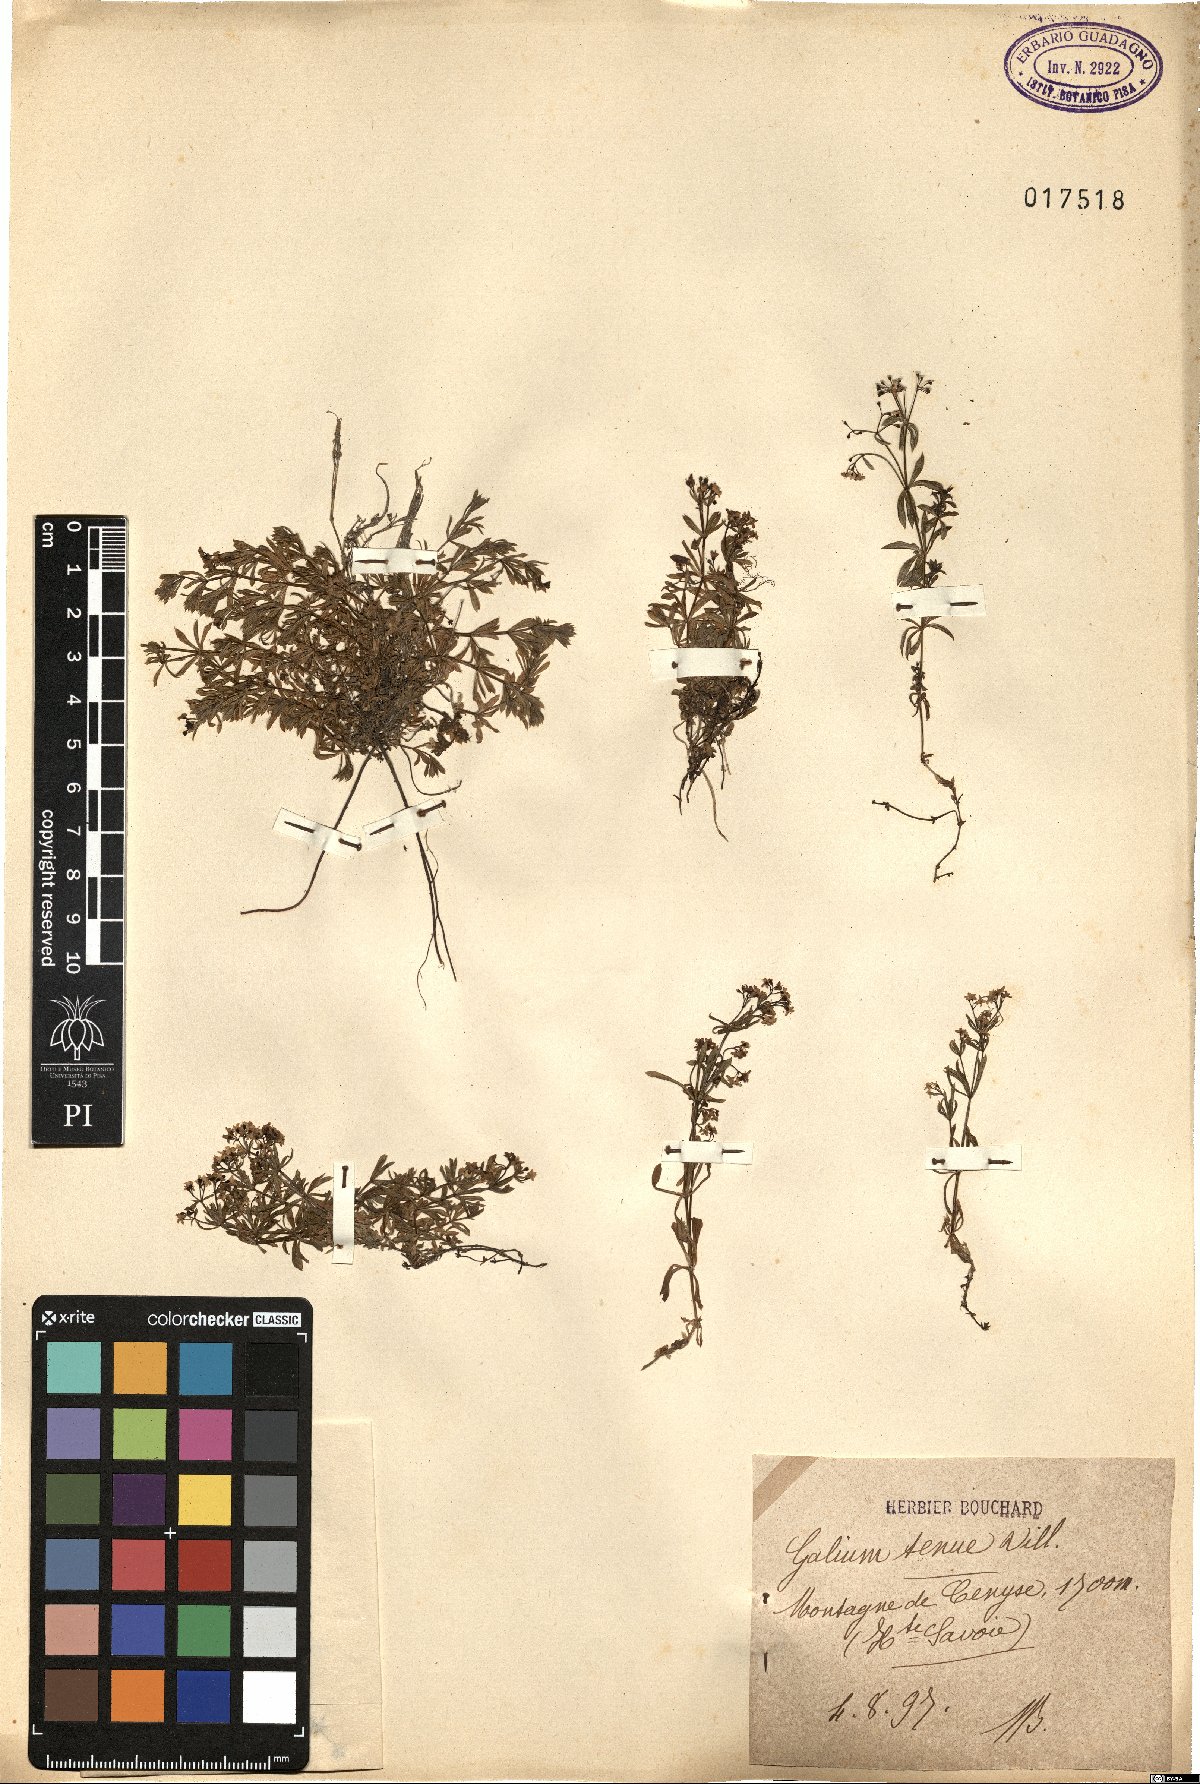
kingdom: Plantae
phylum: Tracheophyta
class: Magnoliopsida
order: Gentianales
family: Rubiaceae
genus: Galium
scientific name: Galium anisophyllon
